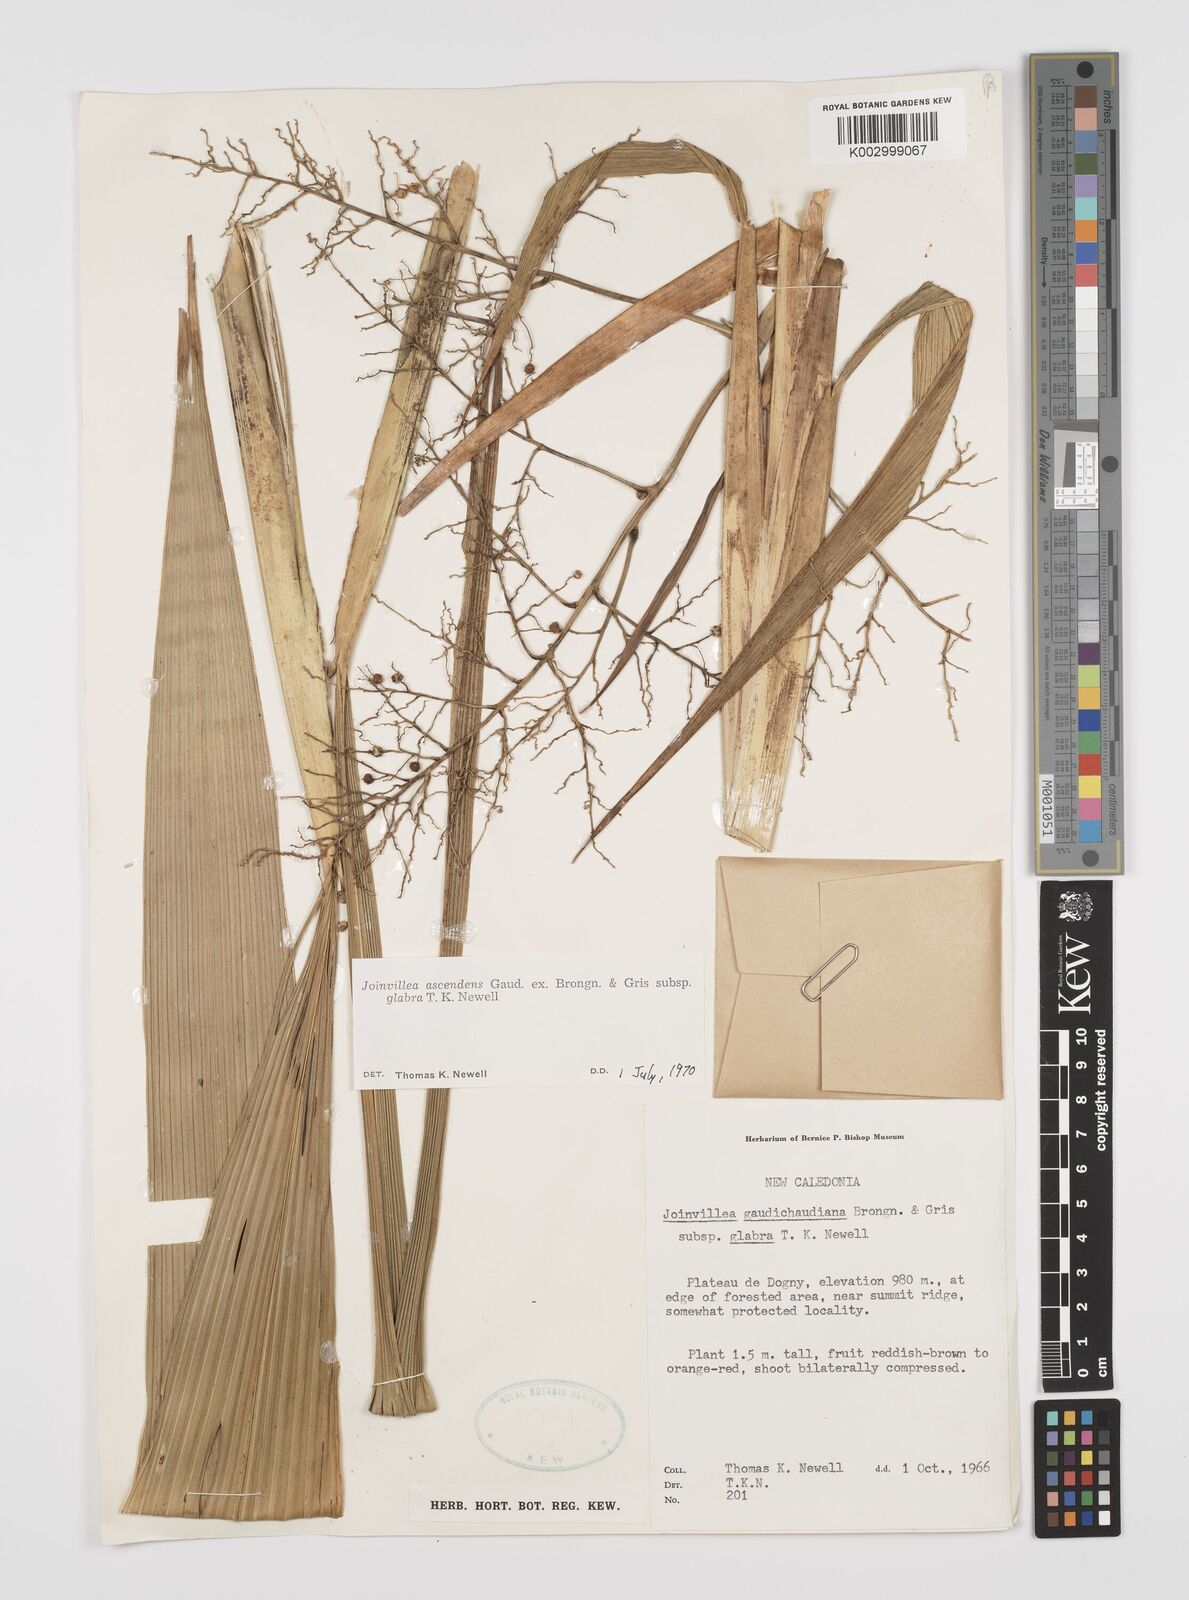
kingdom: Plantae
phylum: Tracheophyta
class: Liliopsida
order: Poales
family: Joinvilleaceae
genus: Joinvillea
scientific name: Joinvillea ascendens
